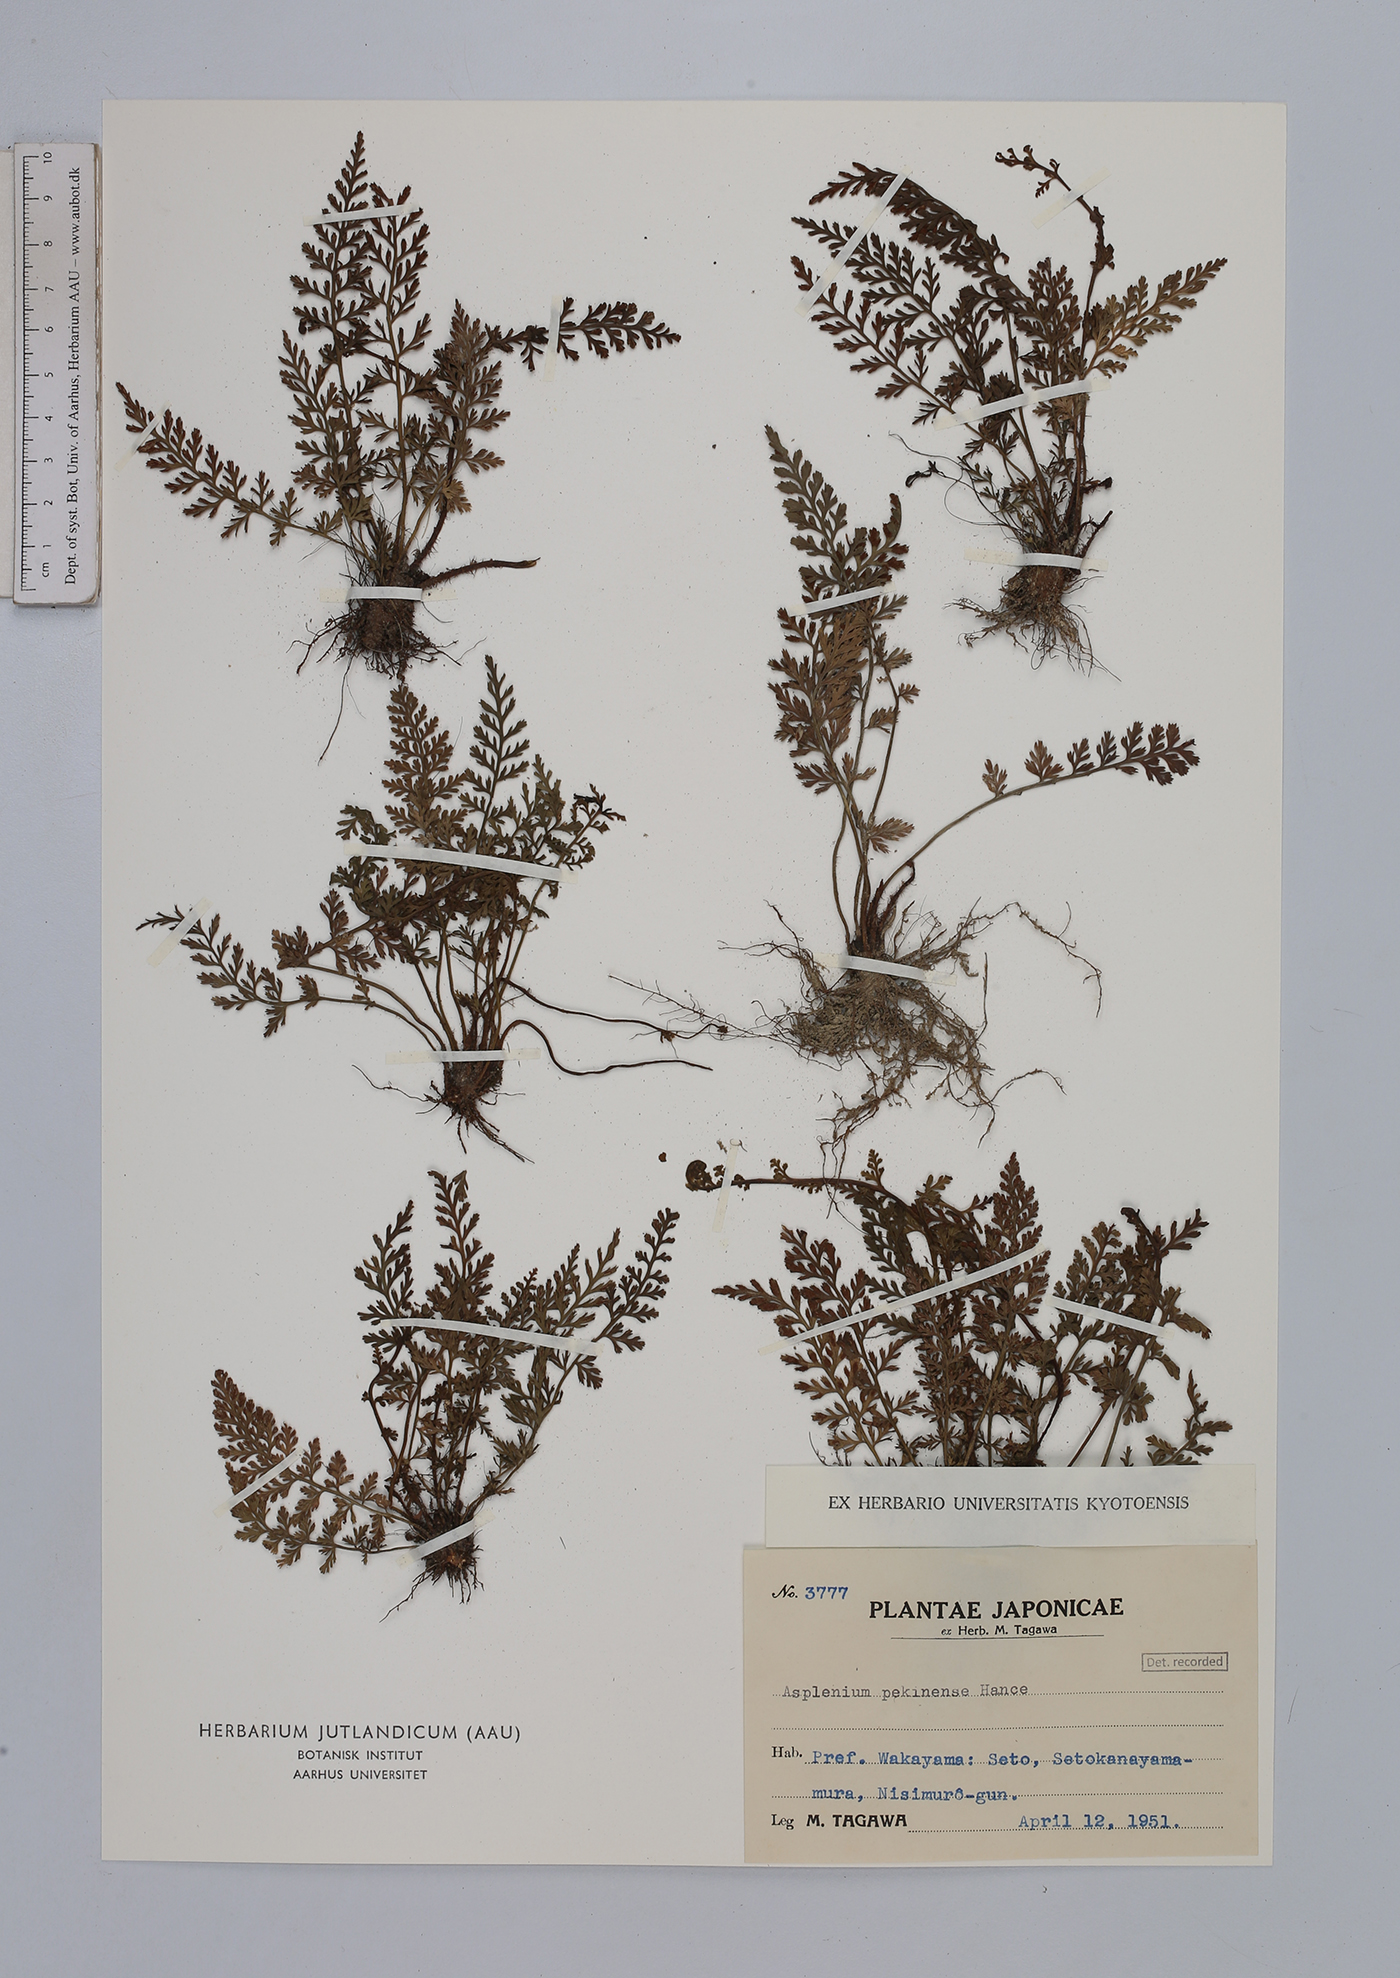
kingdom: Plantae
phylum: Tracheophyta
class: Polypodiopsida
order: Polypodiales
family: Aspleniaceae
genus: Asplenium
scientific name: Asplenium sarelii
